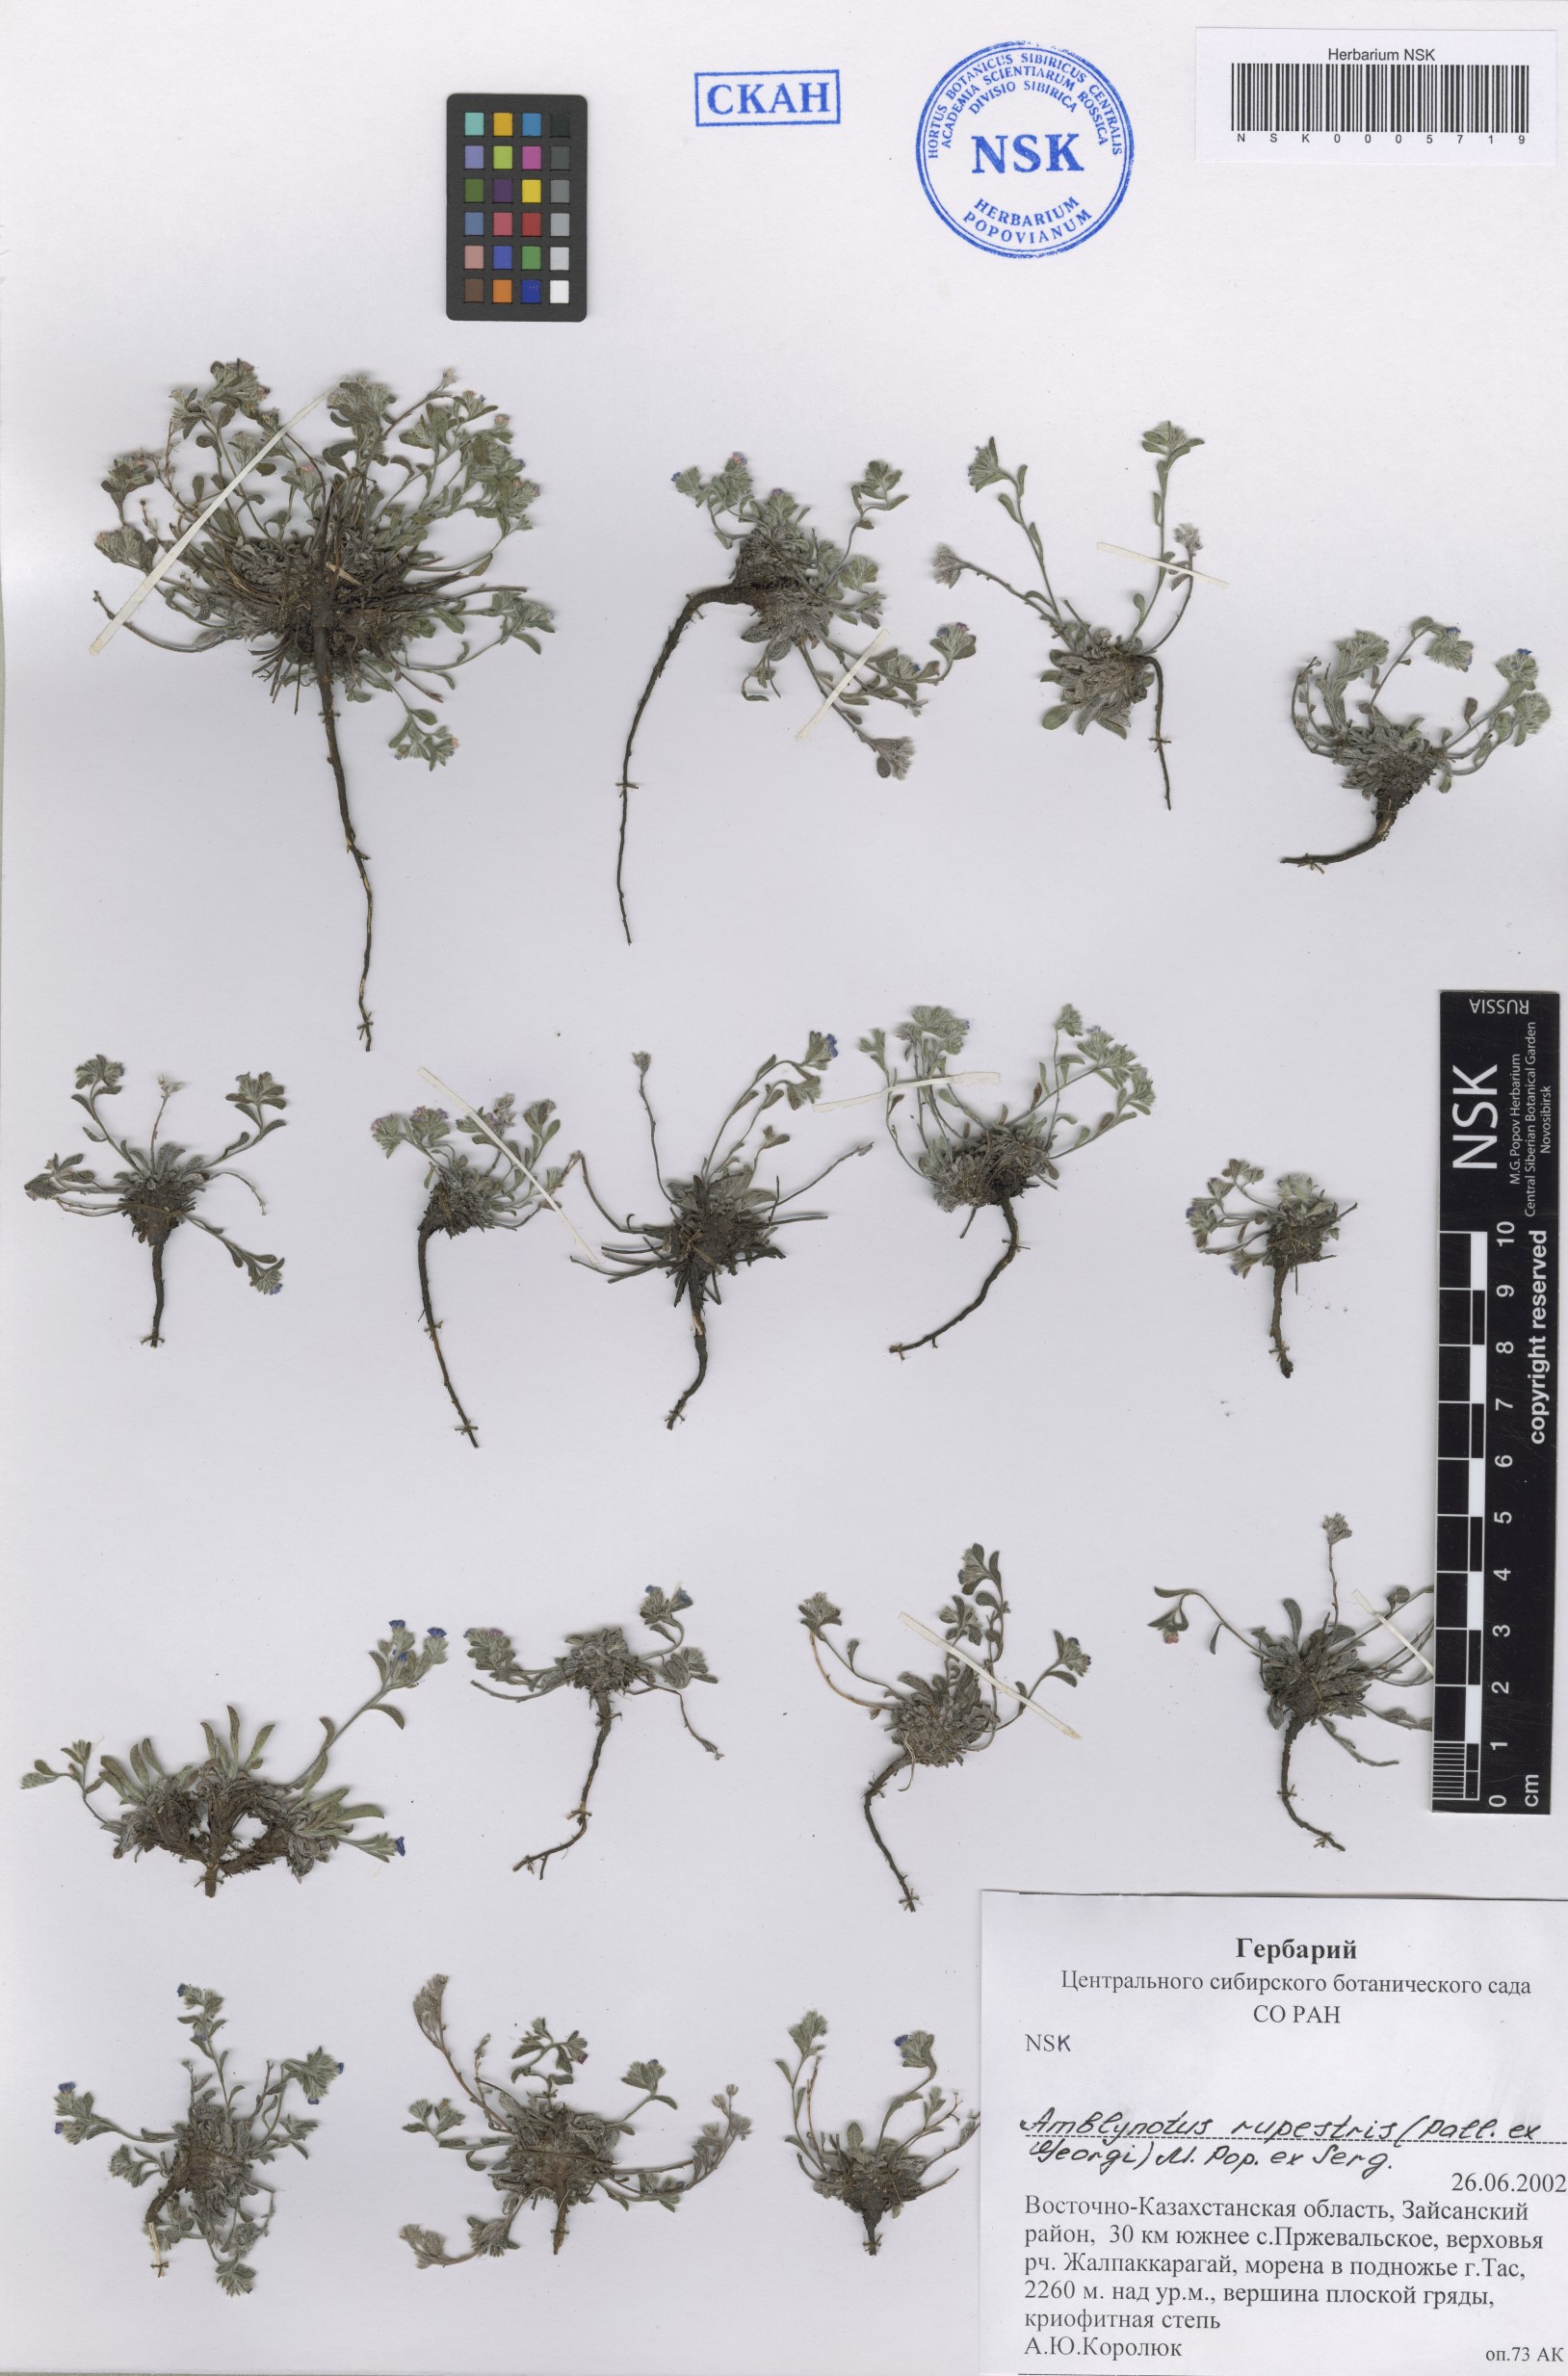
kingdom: Plantae
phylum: Tracheophyta
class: Magnoliopsida
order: Boraginales
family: Boraginaceae
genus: Eritrichium
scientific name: Eritrichium rupestre
